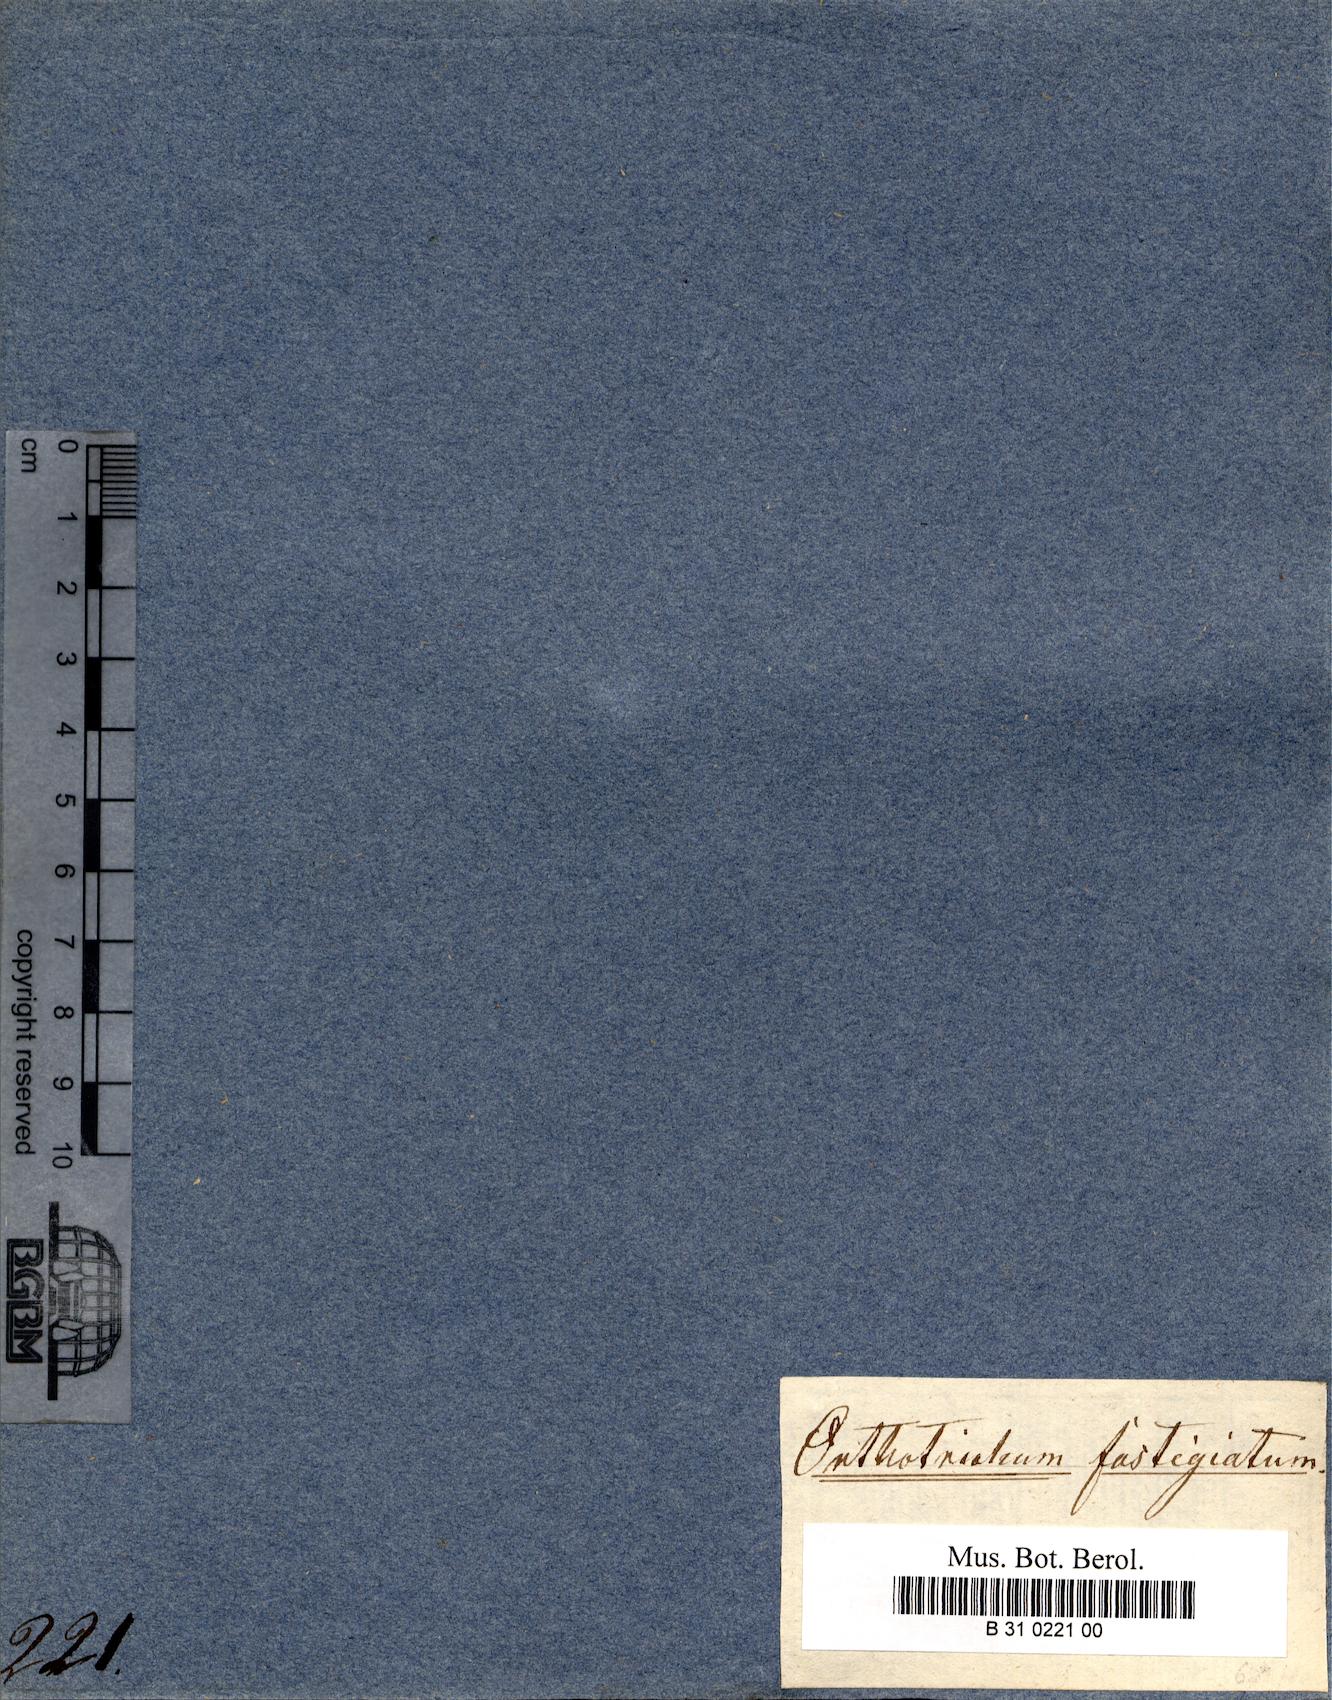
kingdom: Plantae
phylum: Bryophyta
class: Bryopsida
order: Orthotrichales
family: Orthotrichaceae
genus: Lewinskya
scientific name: Lewinskya fastigiata
